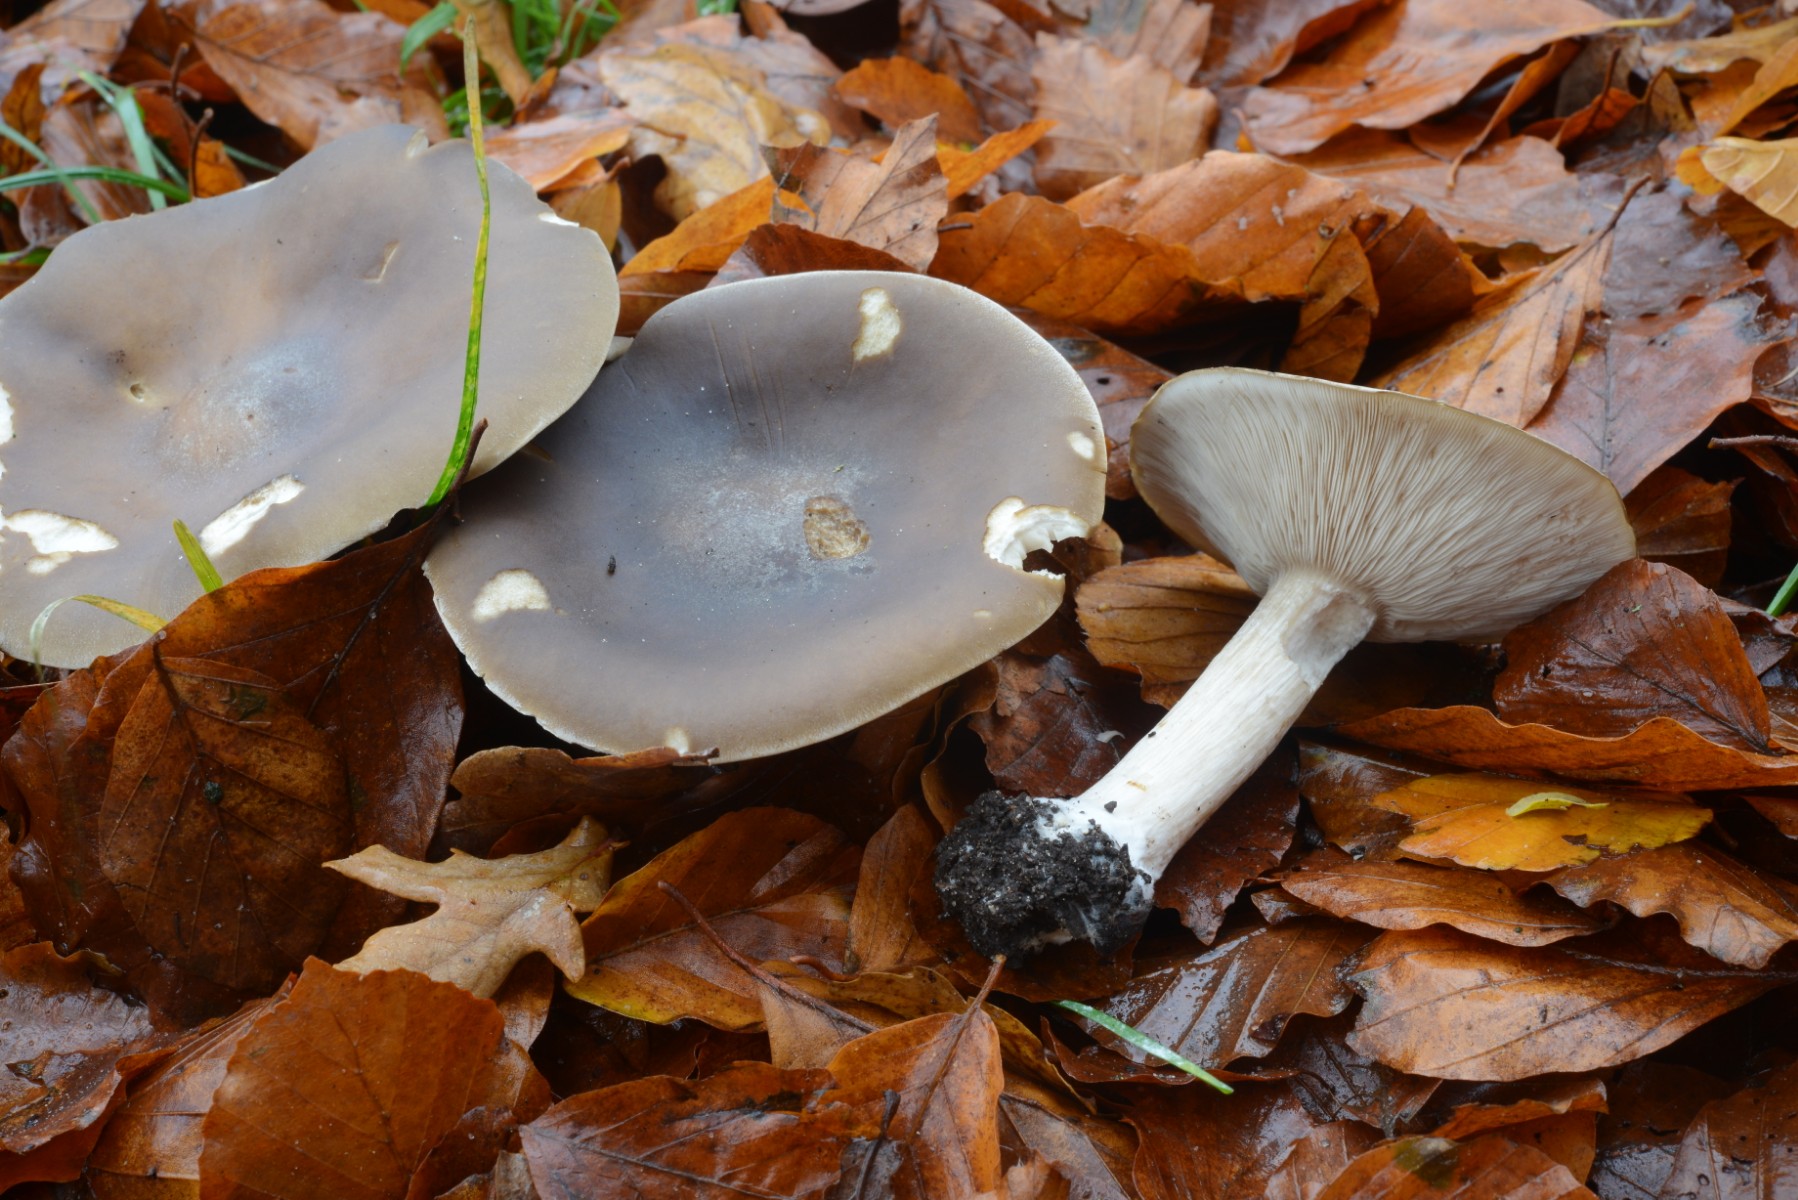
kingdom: Fungi
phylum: Basidiomycota
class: Agaricomycetes
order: Agaricales
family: Tricholomataceae
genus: Melanoleuca
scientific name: Melanoleuca grammopodia
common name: stribestokket munkehat
